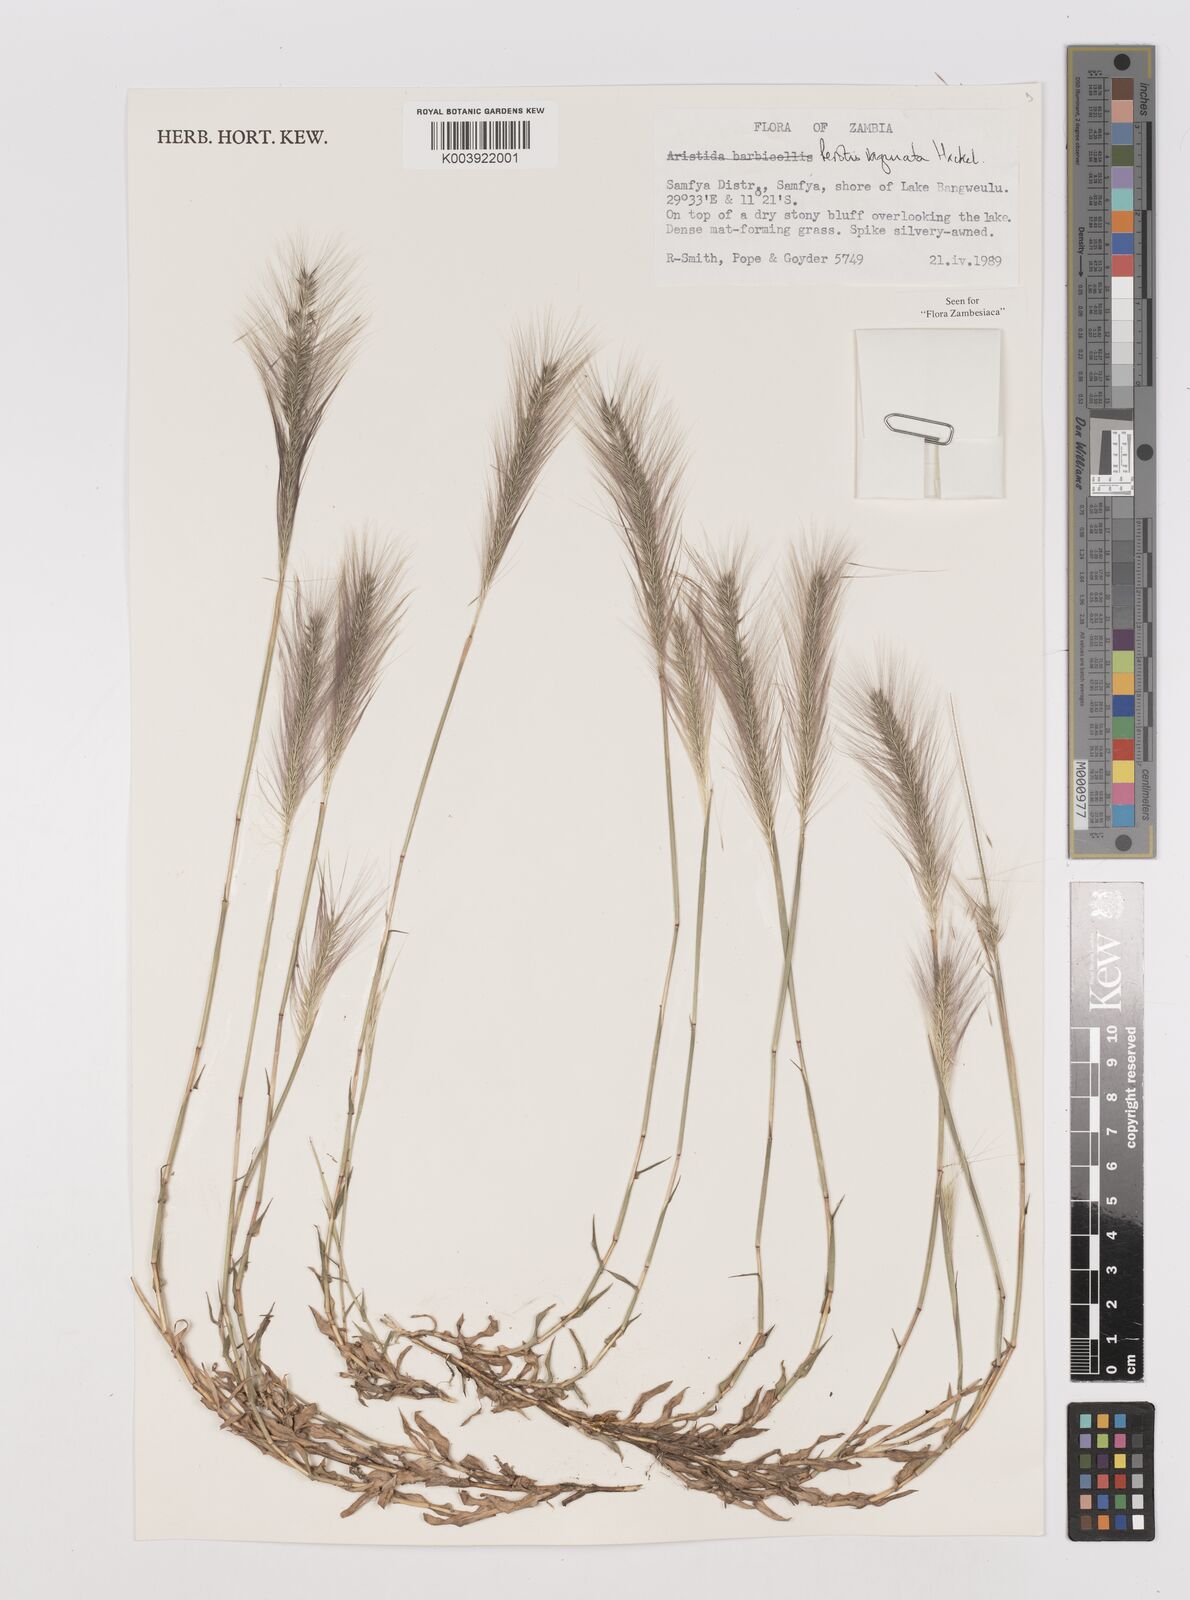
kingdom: Plantae
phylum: Tracheophyta
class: Liliopsida
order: Poales
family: Poaceae
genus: Perotis
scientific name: Perotis vaginata
